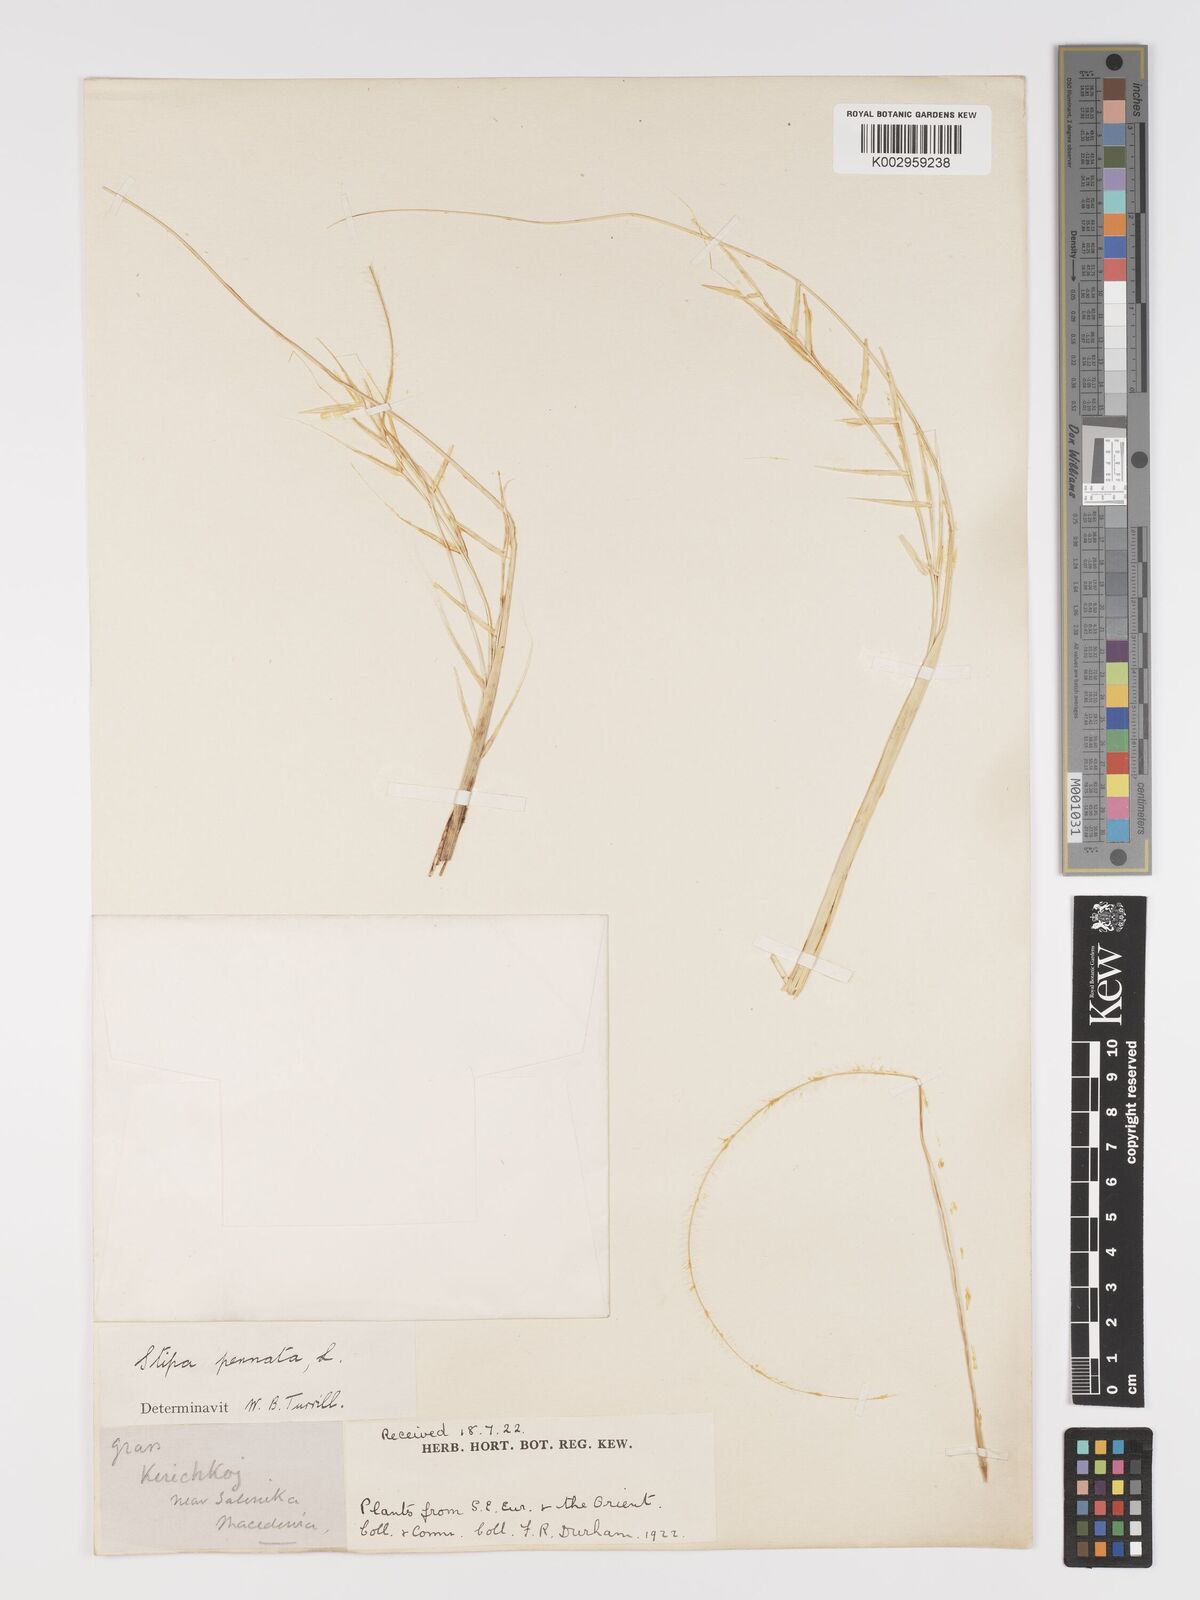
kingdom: Plantae
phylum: Tracheophyta
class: Liliopsida
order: Poales
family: Poaceae
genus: Stipa
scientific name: Stipa pennata
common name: European feather grass
